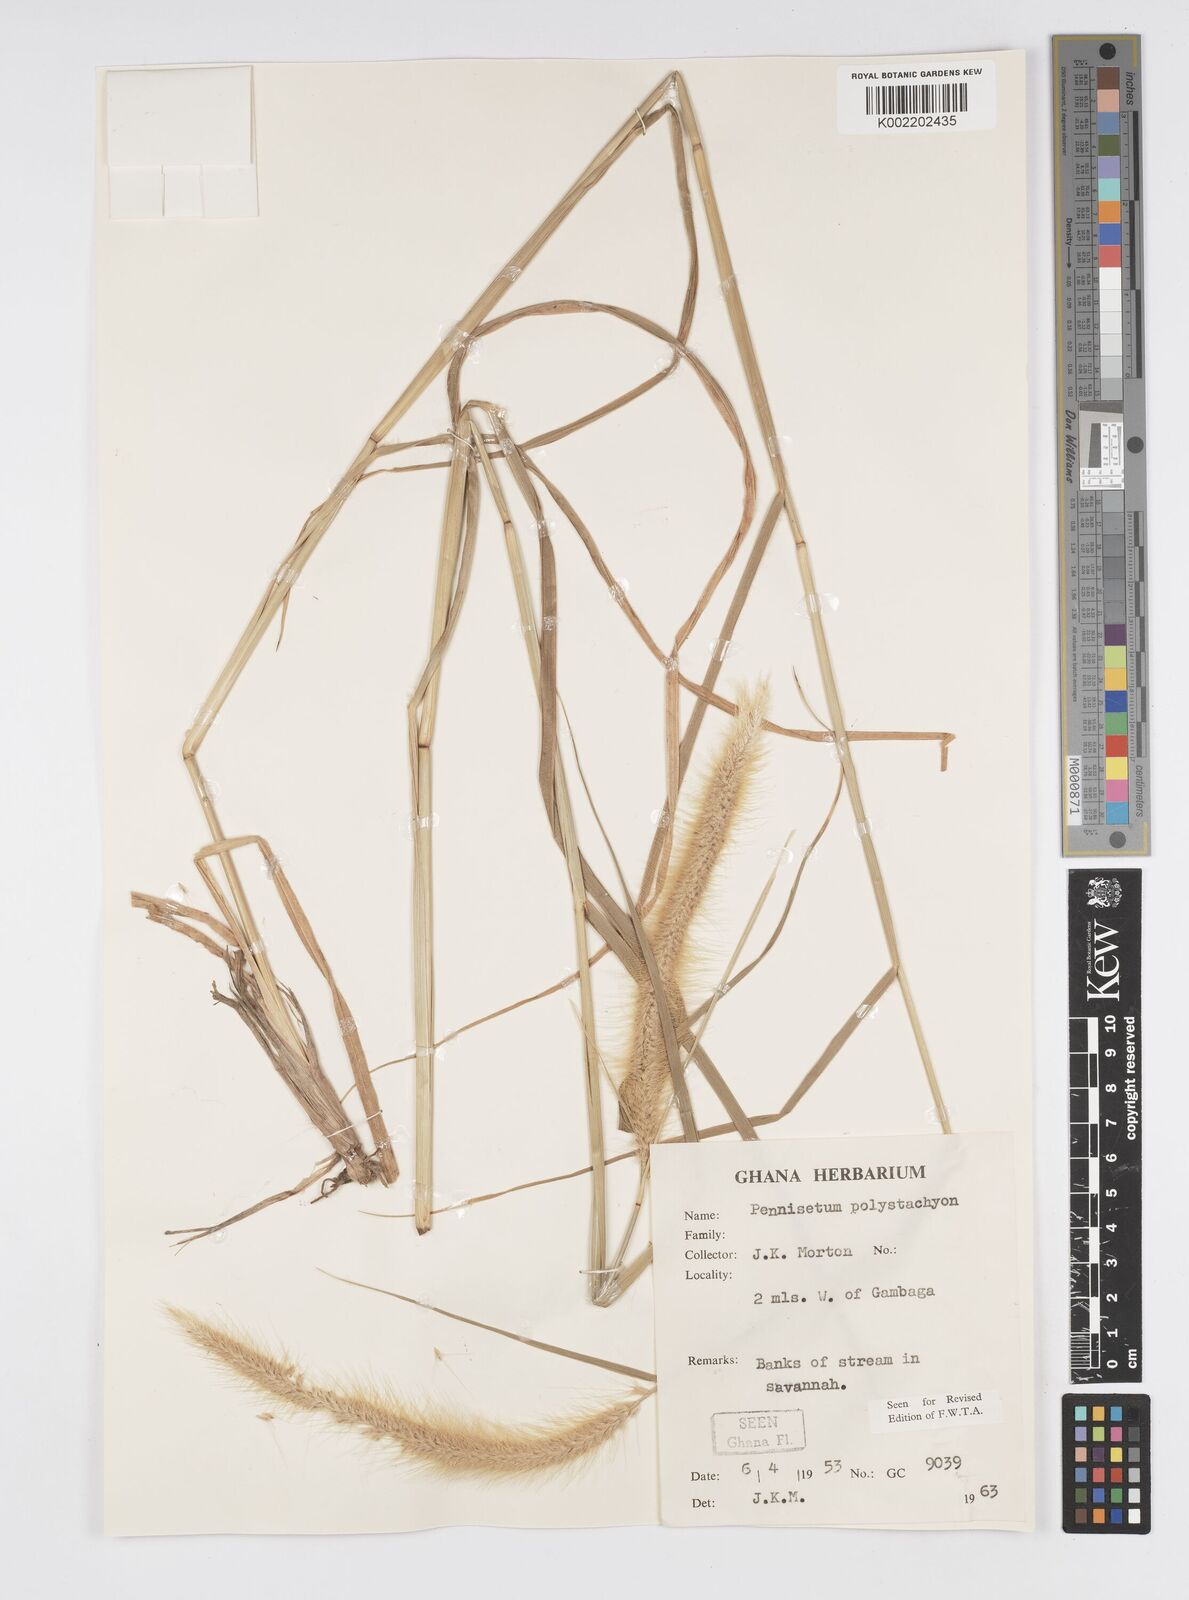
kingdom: Plantae
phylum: Tracheophyta
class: Liliopsida
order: Poales
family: Poaceae
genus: Setaria
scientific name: Setaria parviflora
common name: Knotroot bristle-grass
